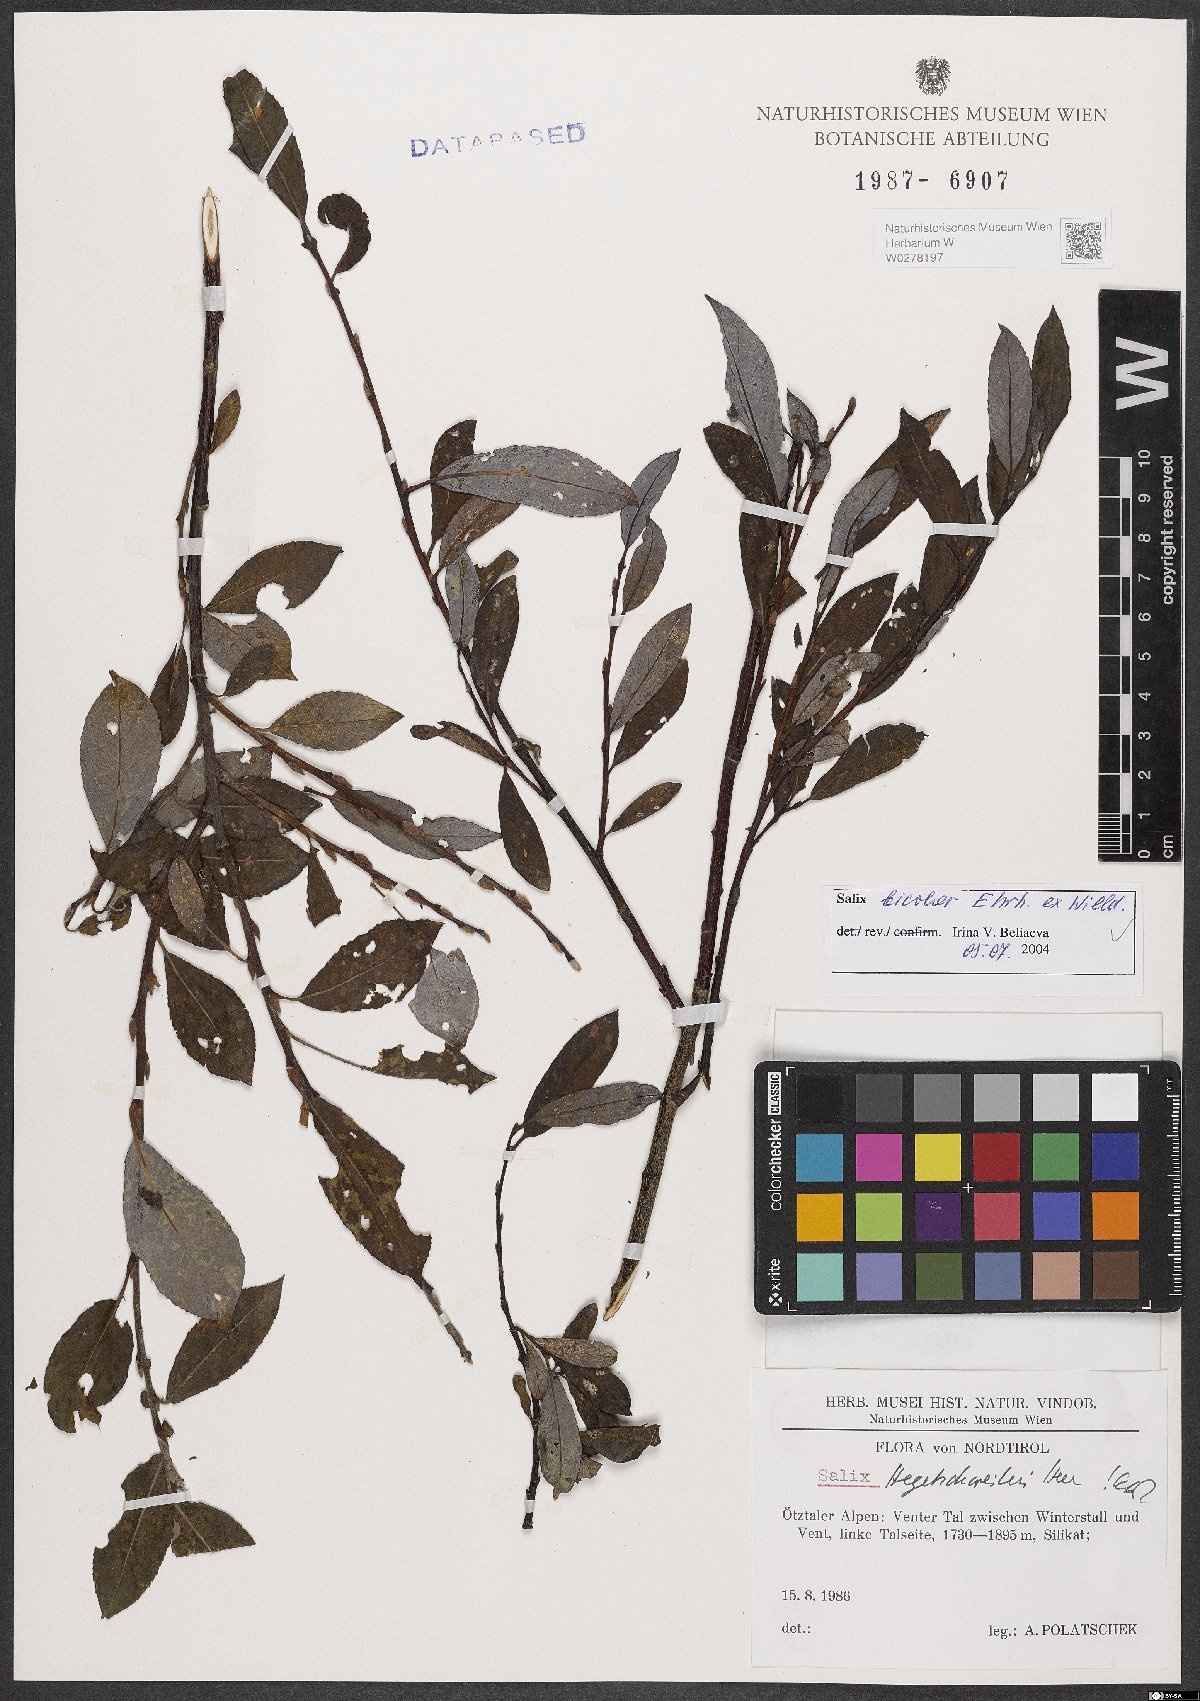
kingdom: Plantae
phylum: Tracheophyta
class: Magnoliopsida
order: Malpighiales
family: Salicaceae
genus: Salix
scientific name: Salix bicolor
